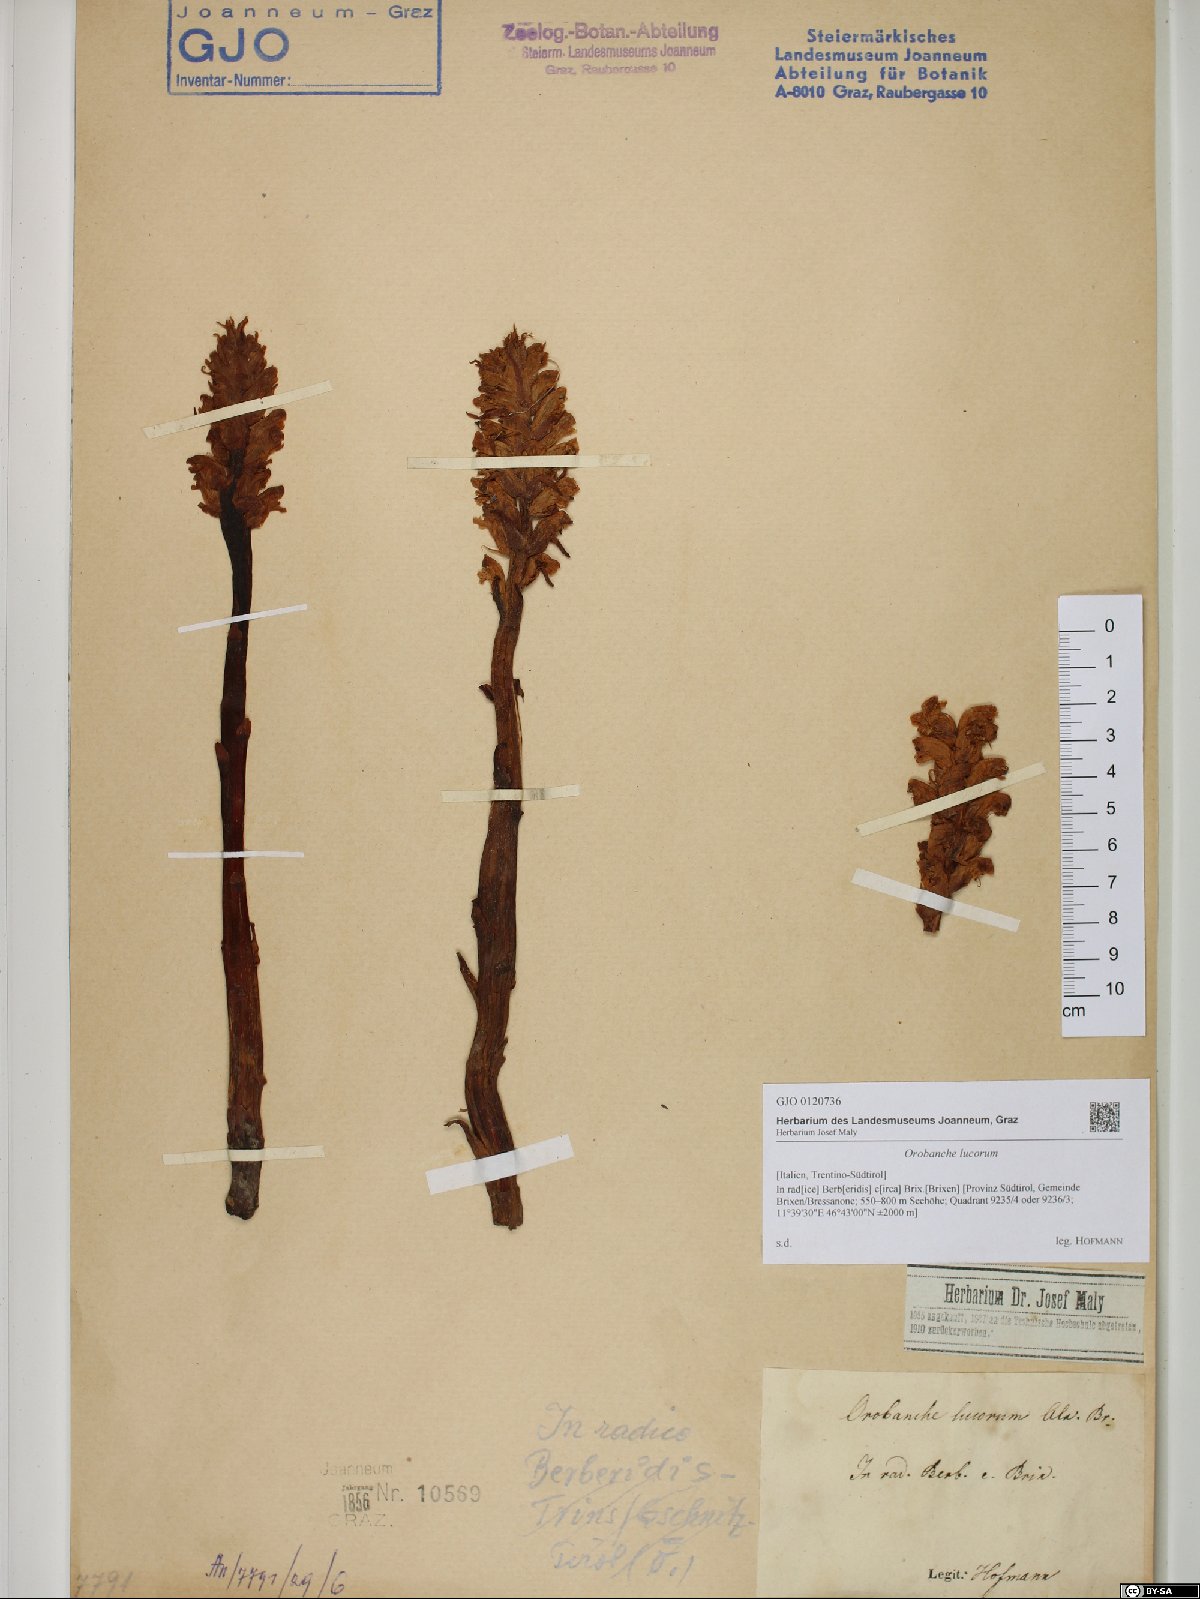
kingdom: Plantae
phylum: Tracheophyta
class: Magnoliopsida
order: Lamiales
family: Orobanchaceae
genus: Orobanche
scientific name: Orobanche lucorum
